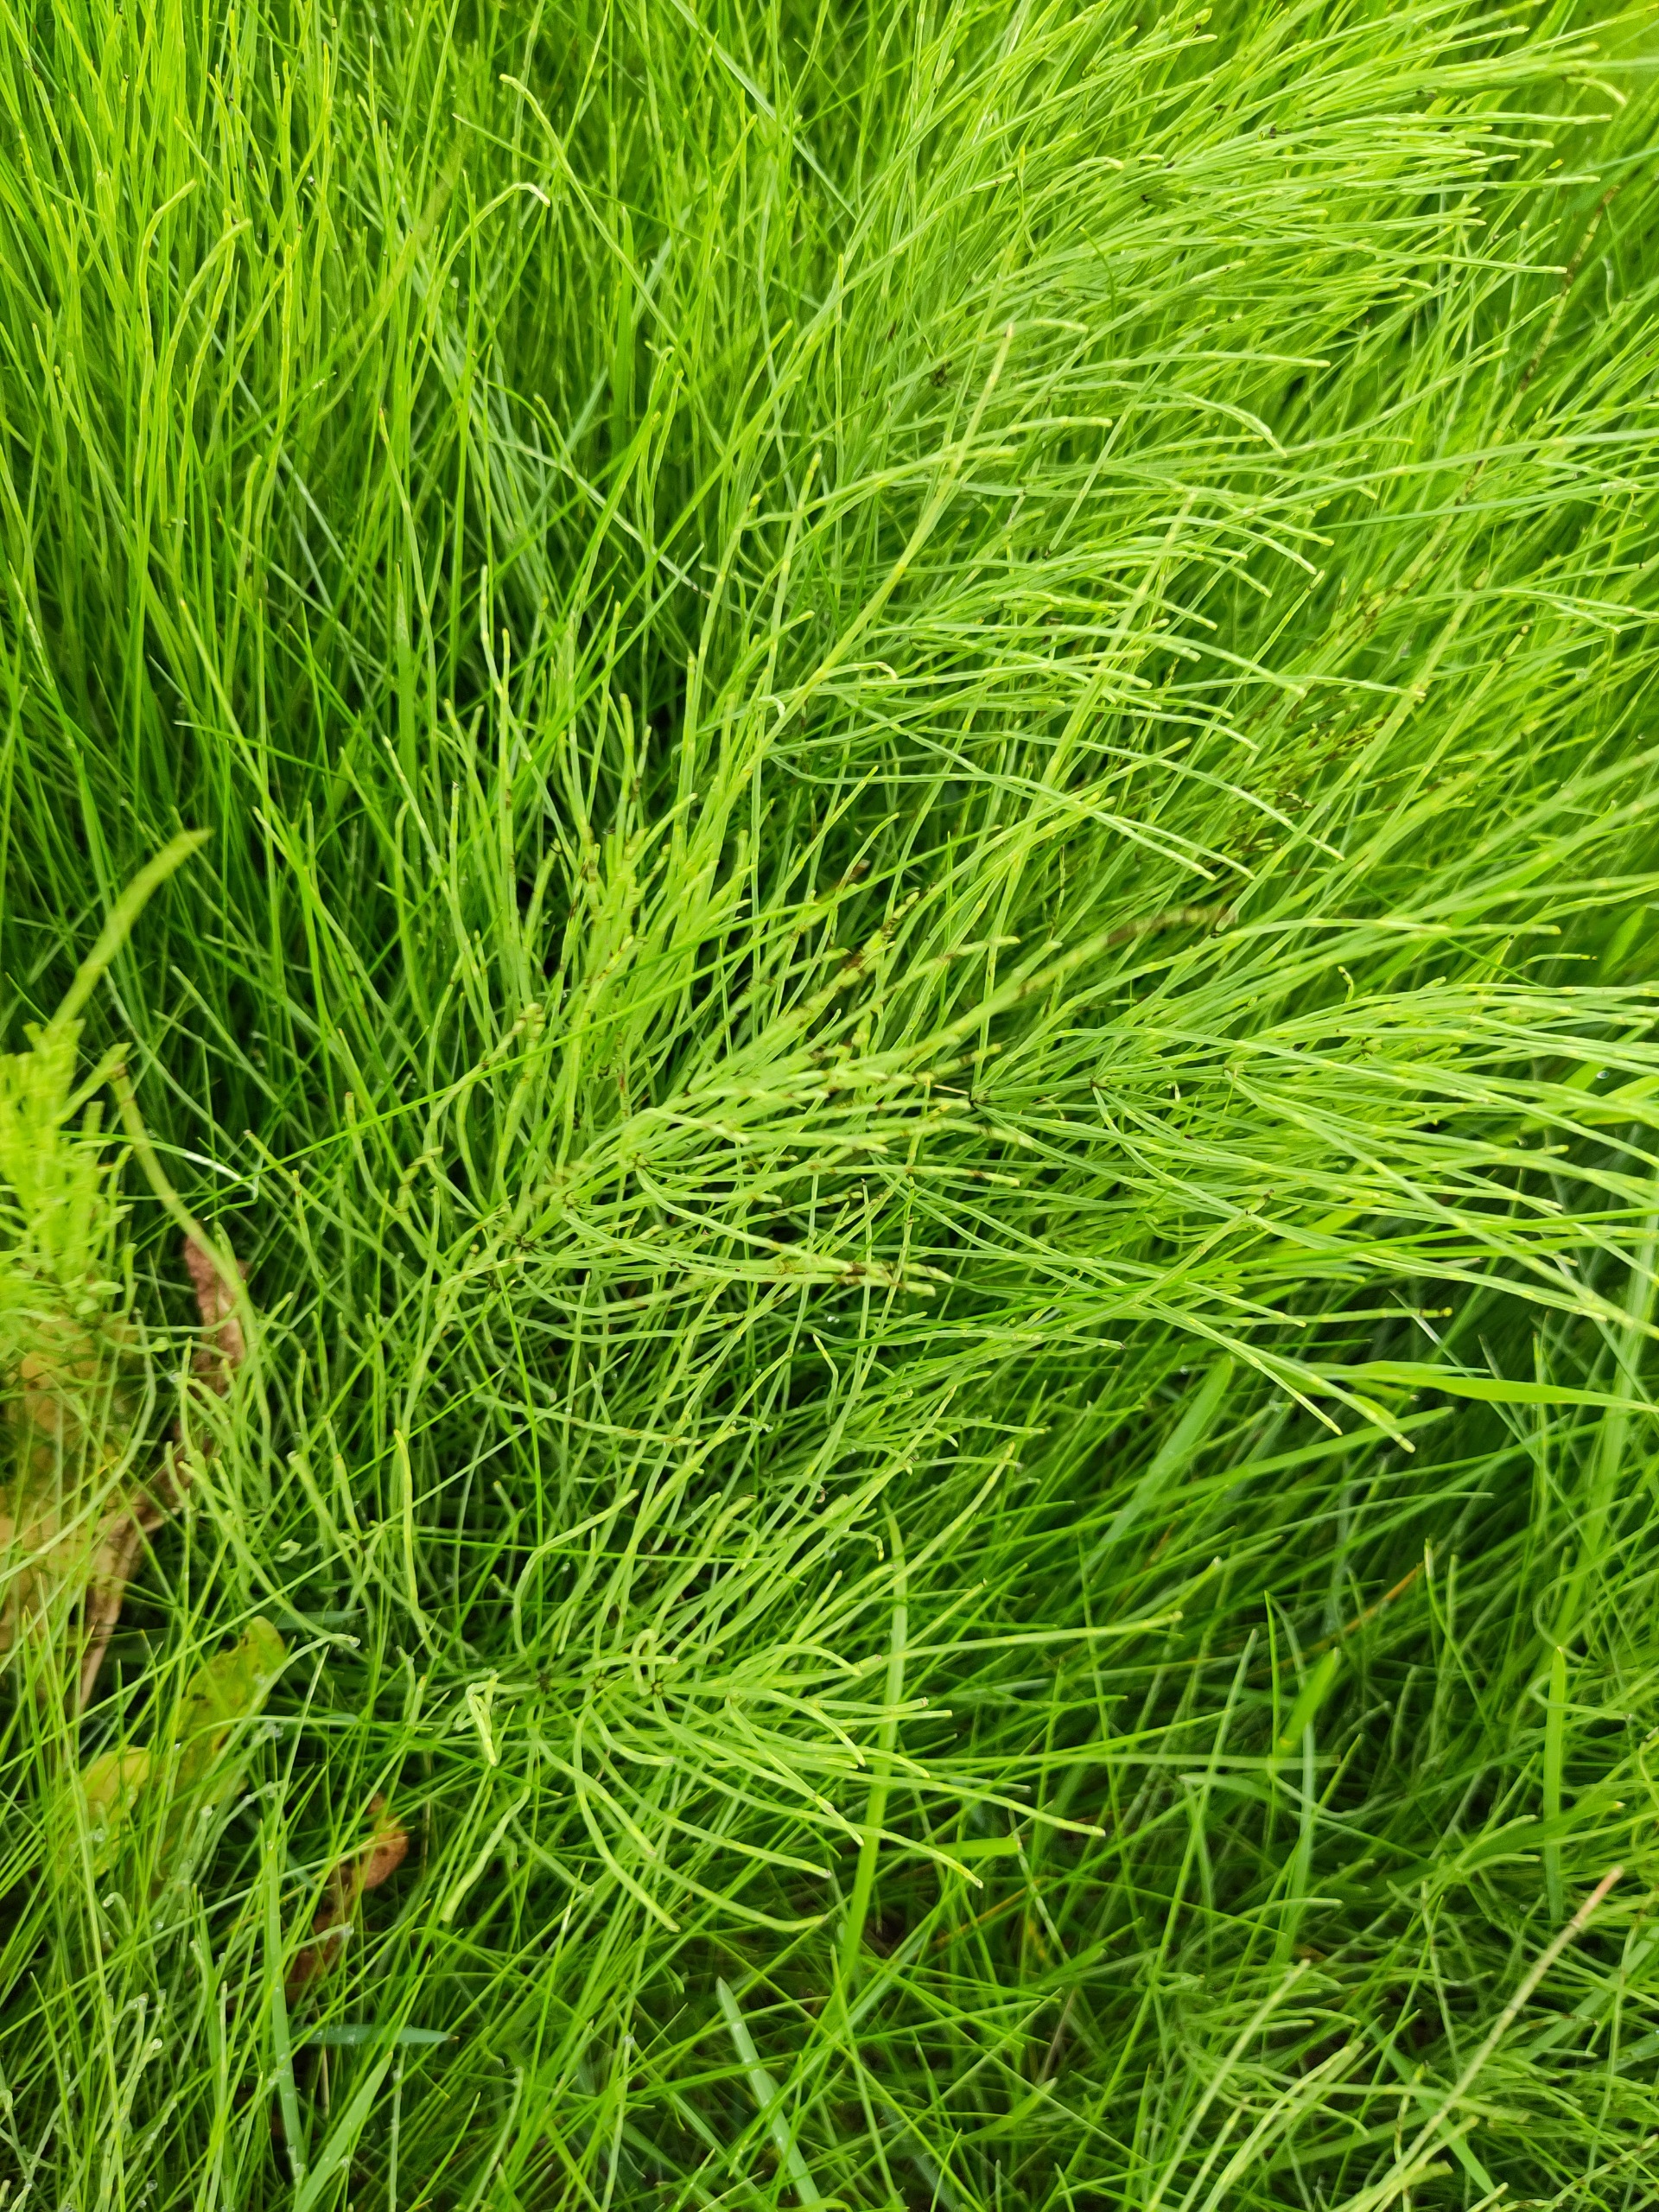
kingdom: Plantae
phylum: Tracheophyta
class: Polypodiopsida
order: Equisetales
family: Equisetaceae
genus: Equisetum
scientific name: Equisetum arvense
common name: Ager-padderok
